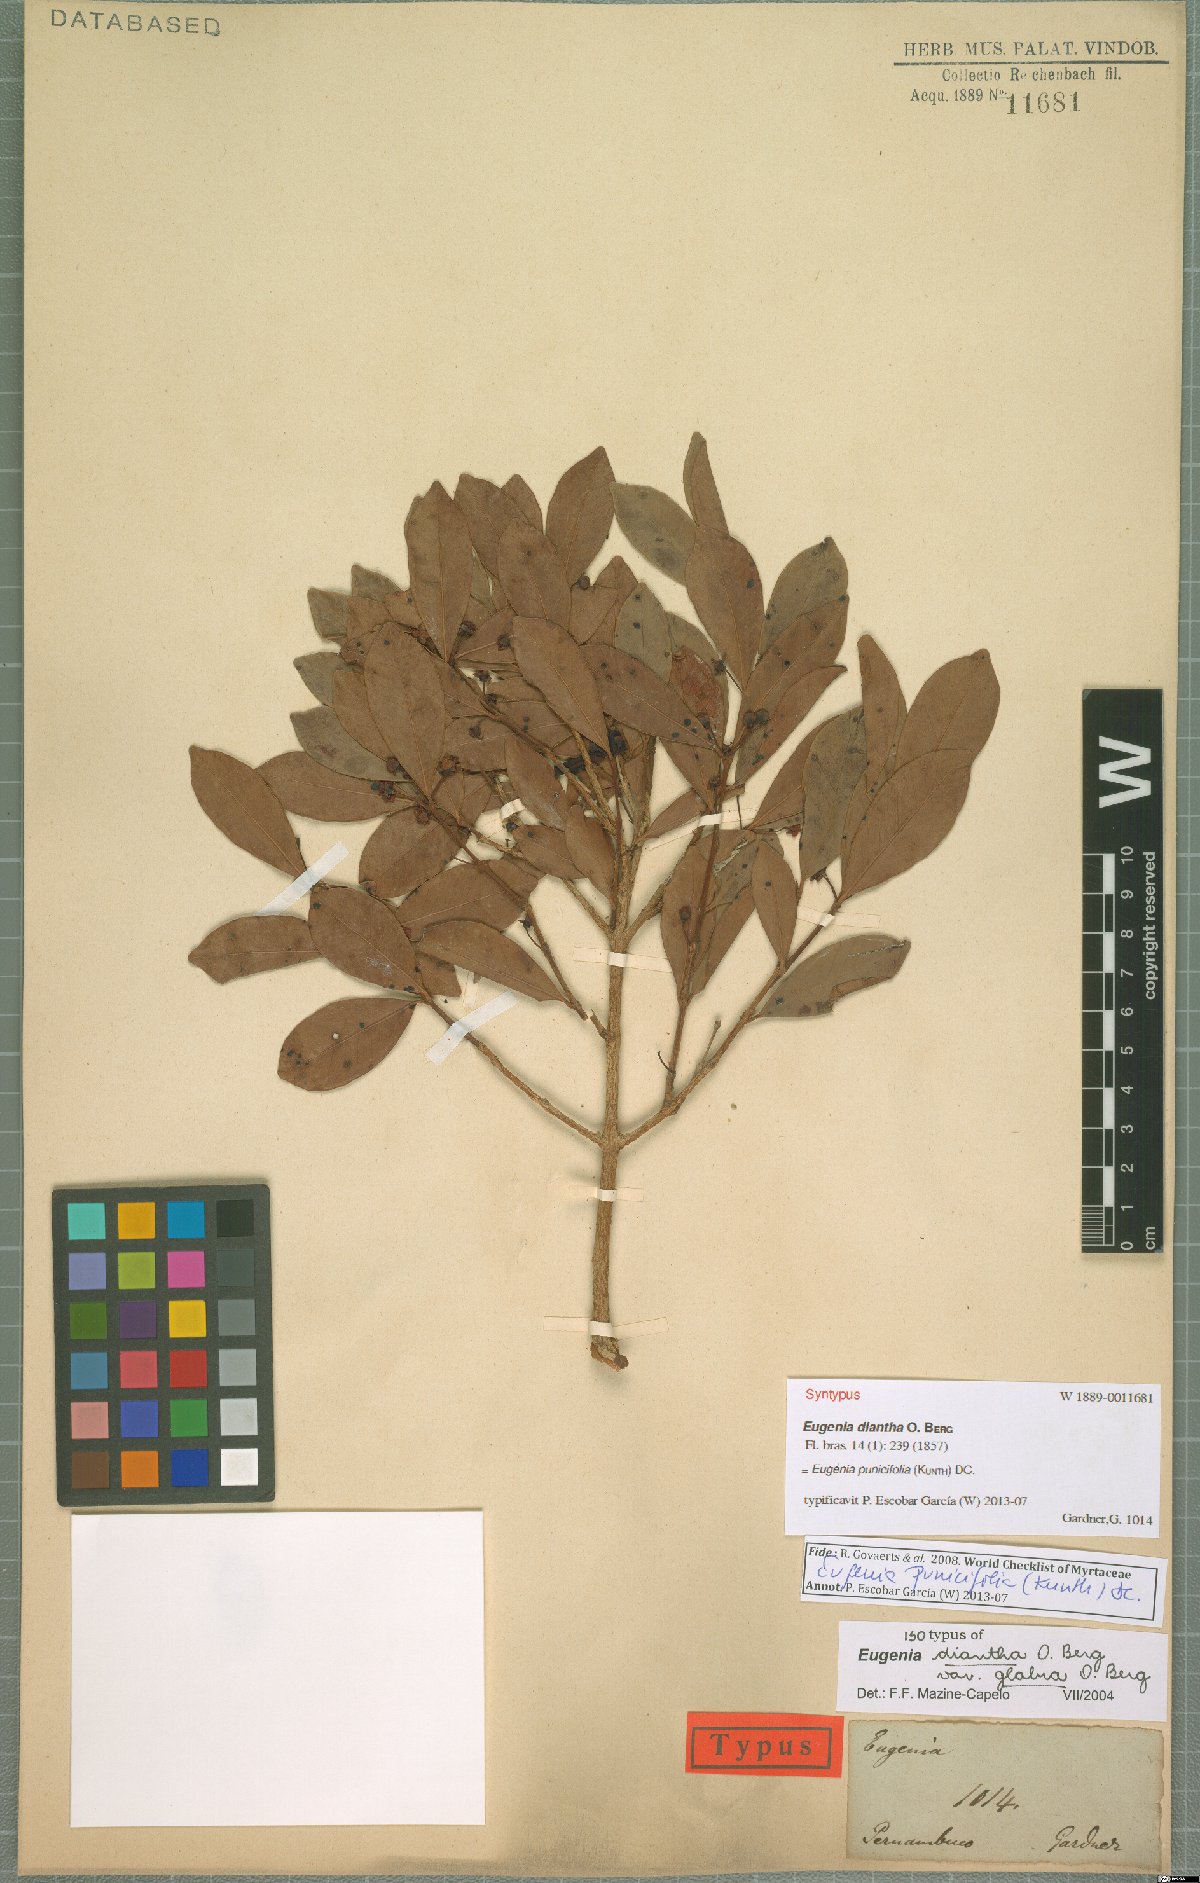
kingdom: Plantae
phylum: Tracheophyta
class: Magnoliopsida
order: Myrtales
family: Myrtaceae
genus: Eugenia
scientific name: Eugenia punicifolia
